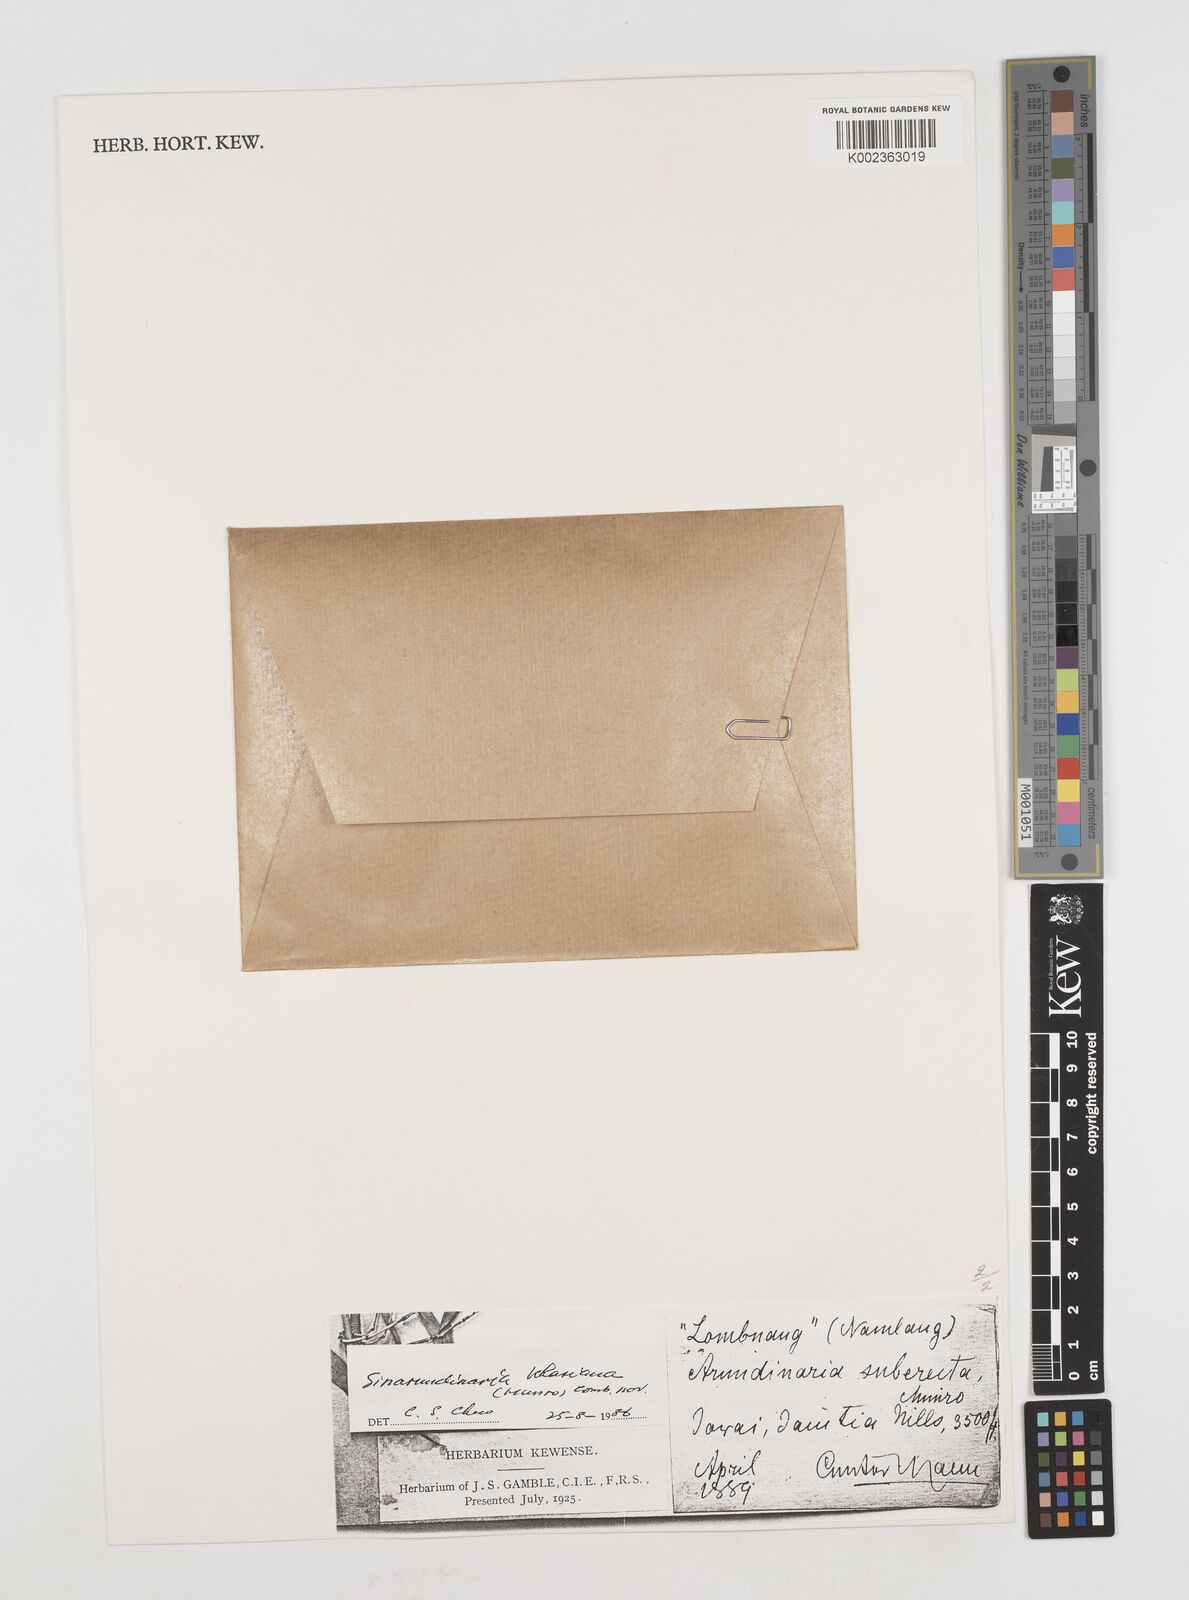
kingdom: Plantae
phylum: Tracheophyta
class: Liliopsida
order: Poales
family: Poaceae
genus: Drepanostachyum
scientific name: Drepanostachyum khasianum
